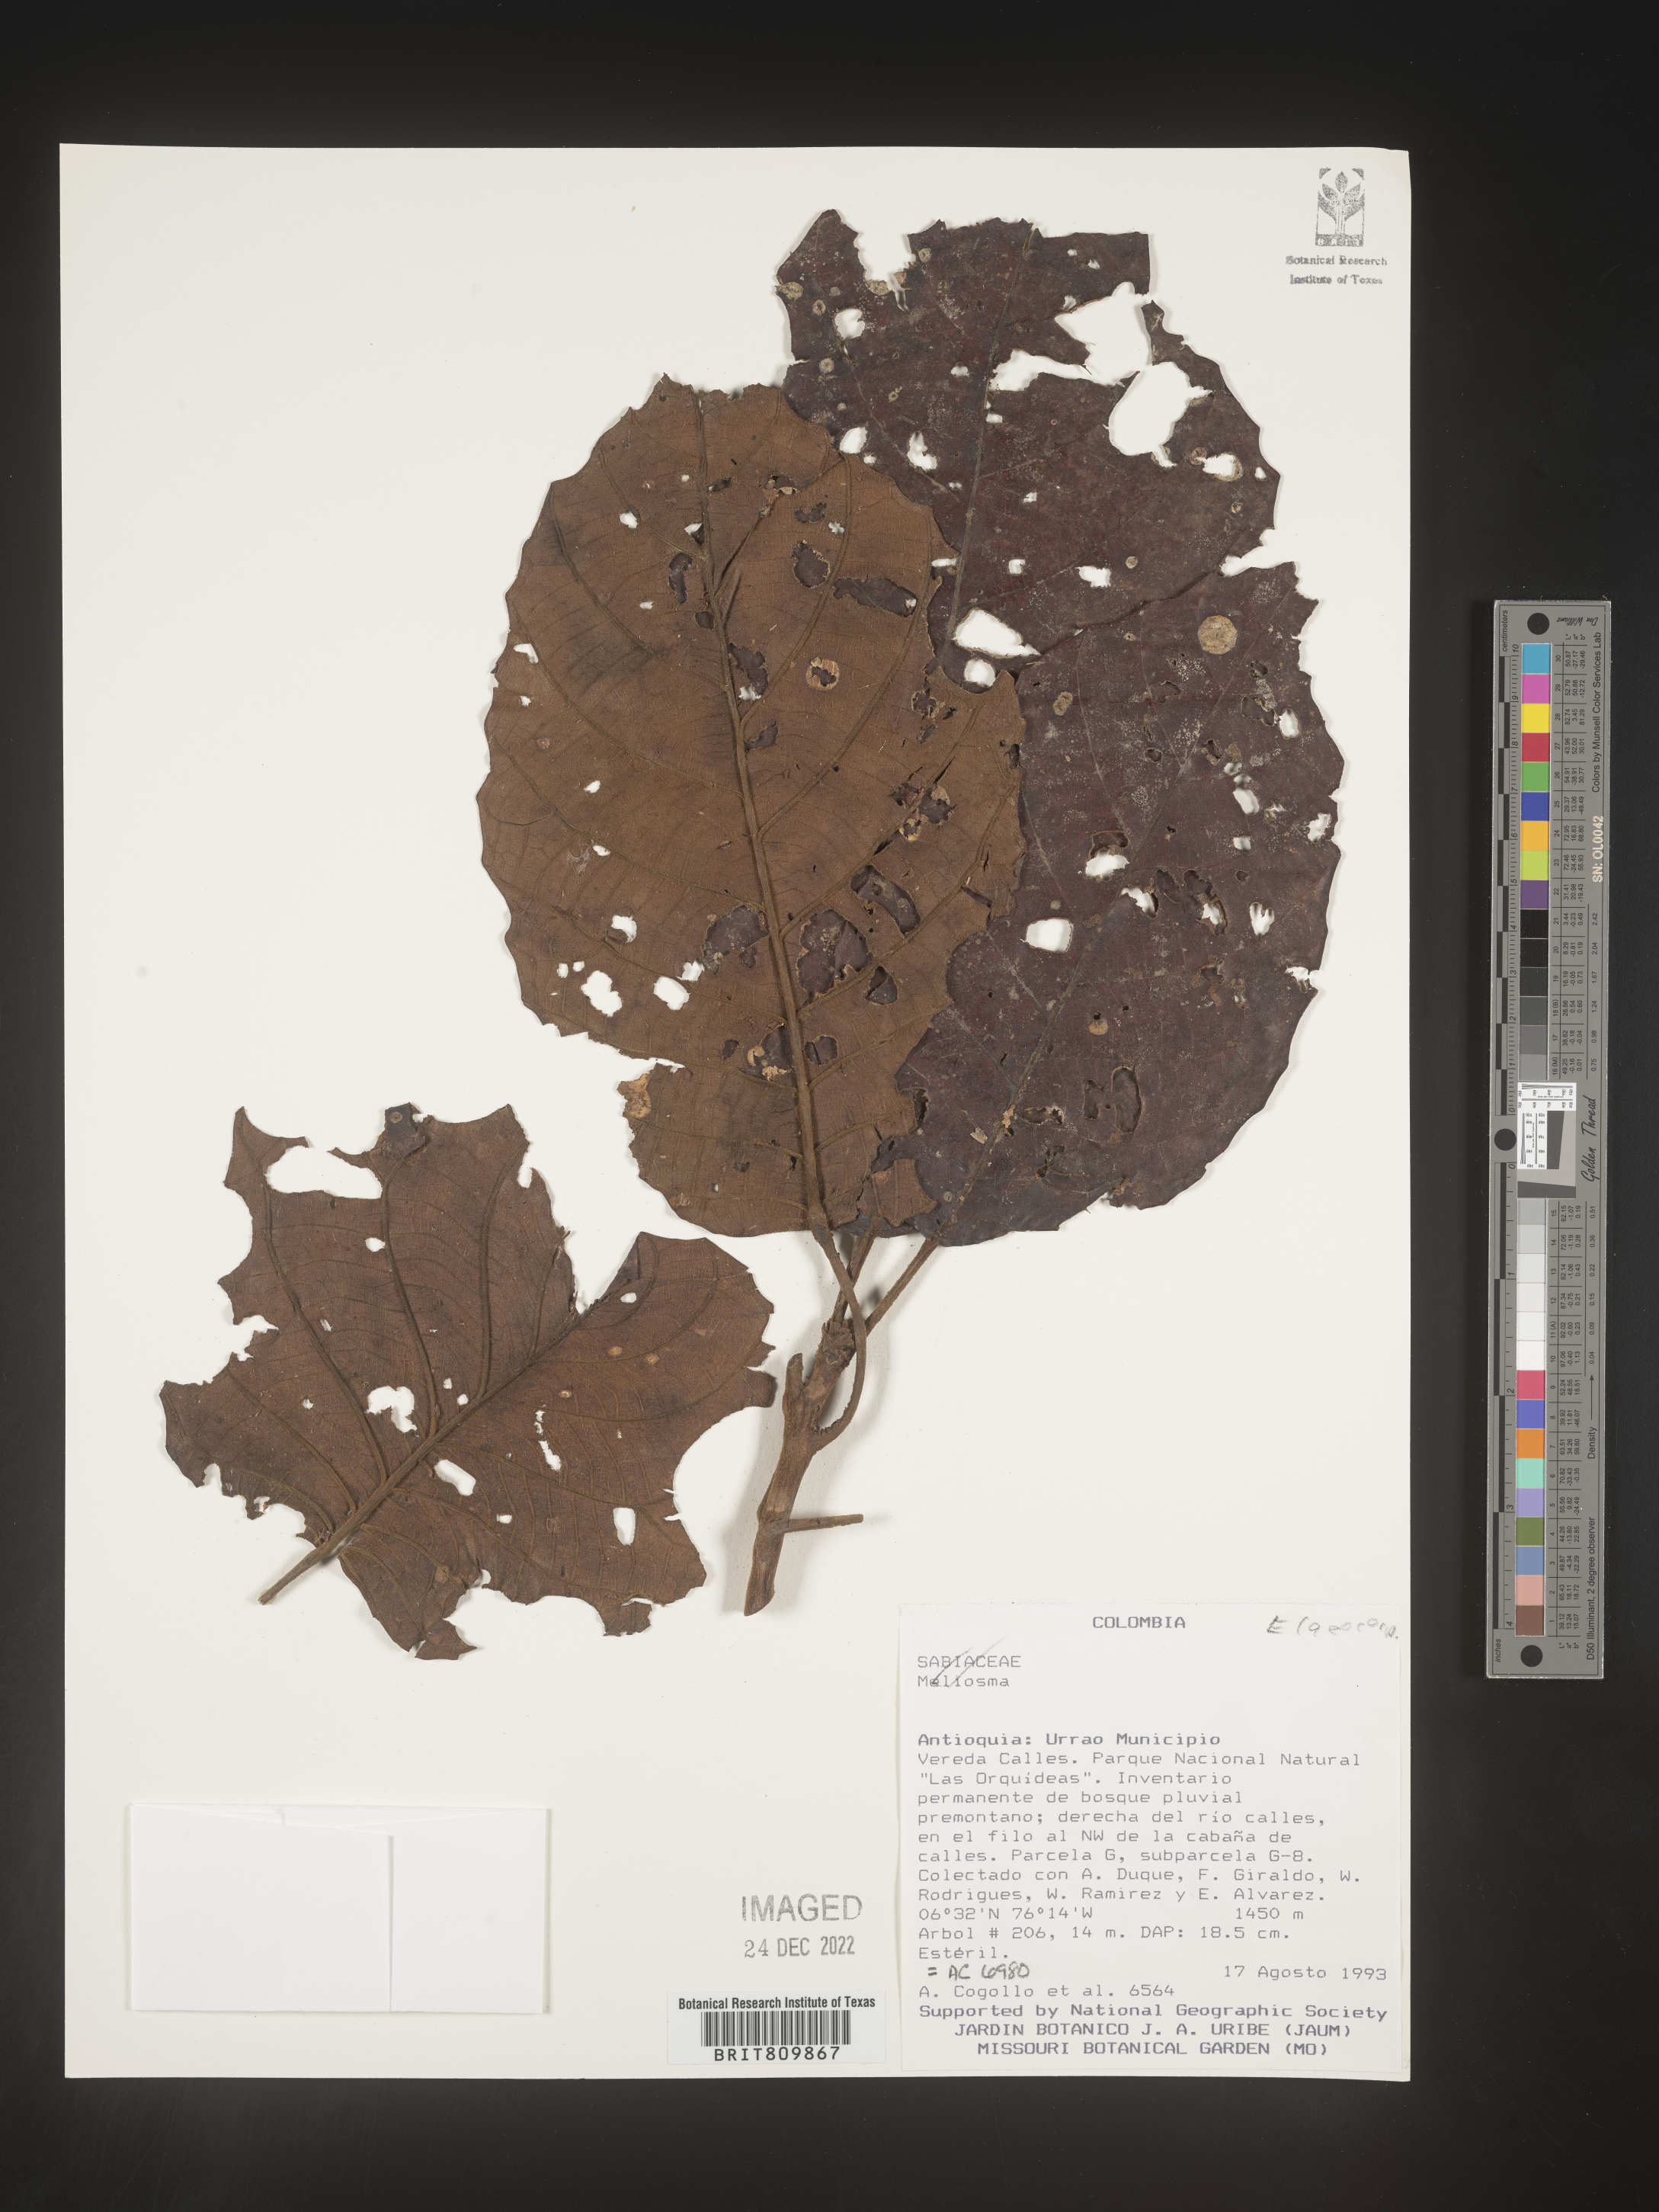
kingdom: Plantae
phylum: Tracheophyta
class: Magnoliopsida
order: Oxalidales
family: Elaeocarpaceae
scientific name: Elaeocarpaceae
